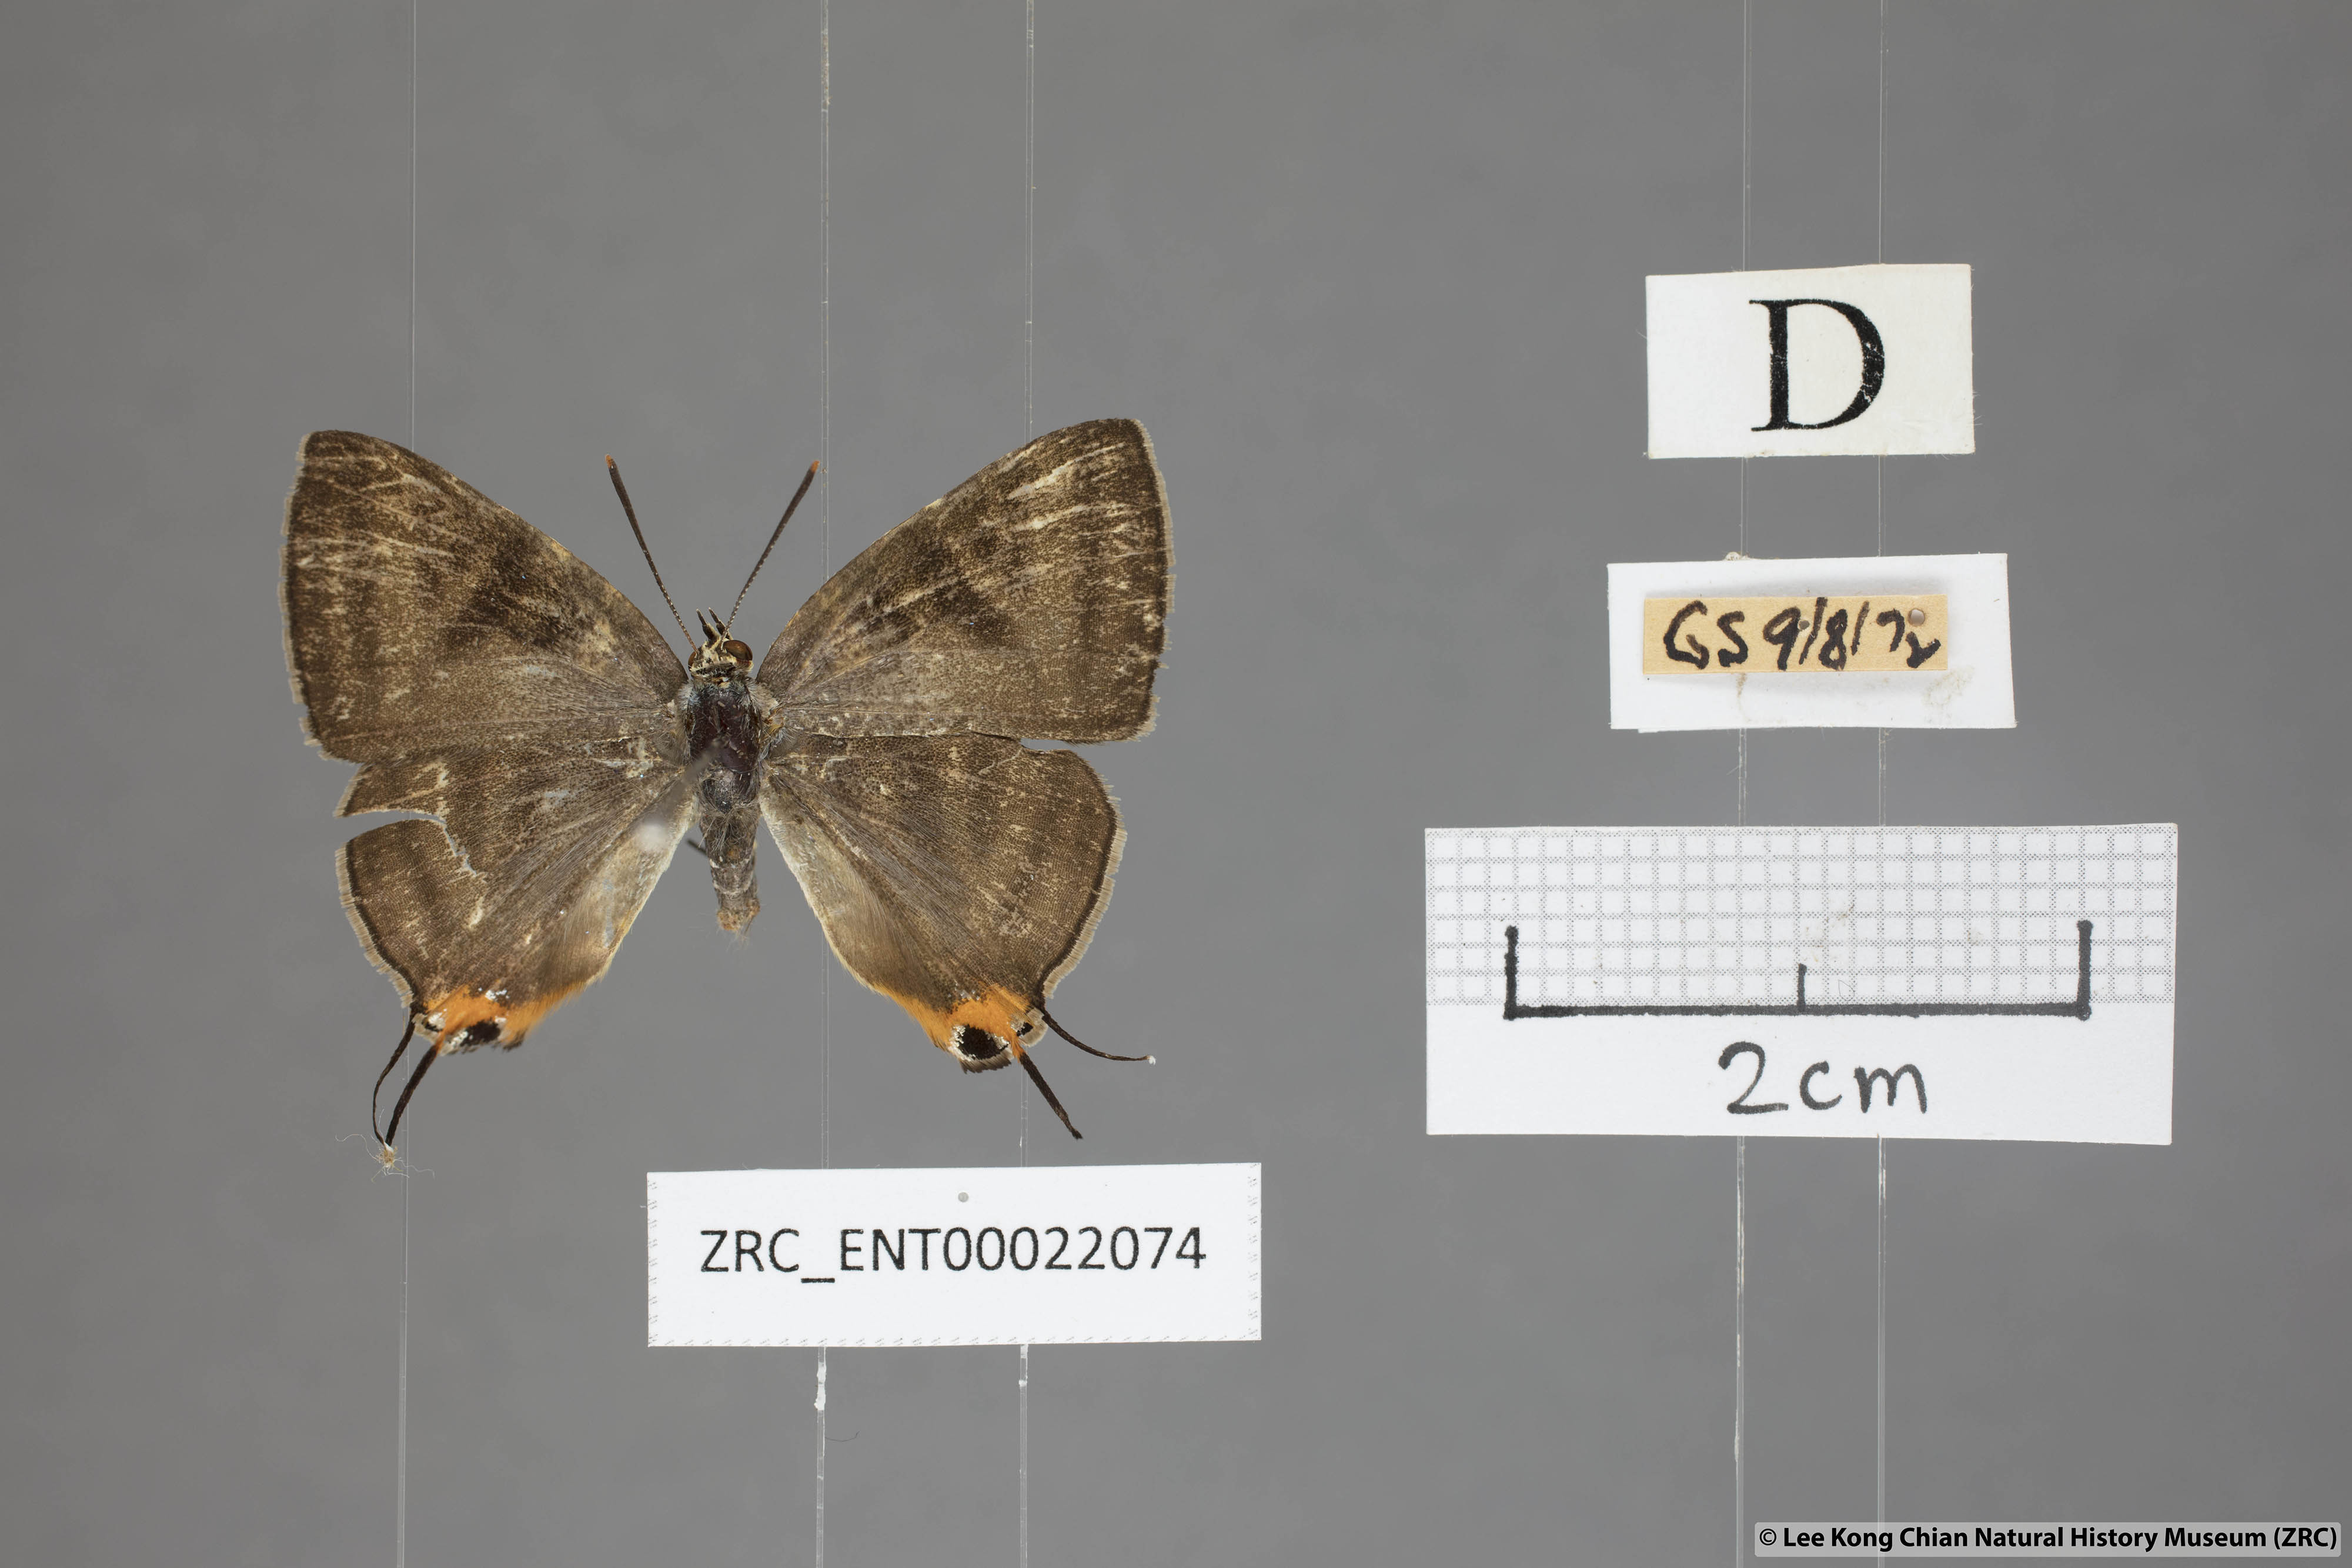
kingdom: Animalia
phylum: Arthropoda
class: Insecta
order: Lepidoptera
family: Lycaenidae
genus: Spindasis
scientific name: Spindasis lohita
